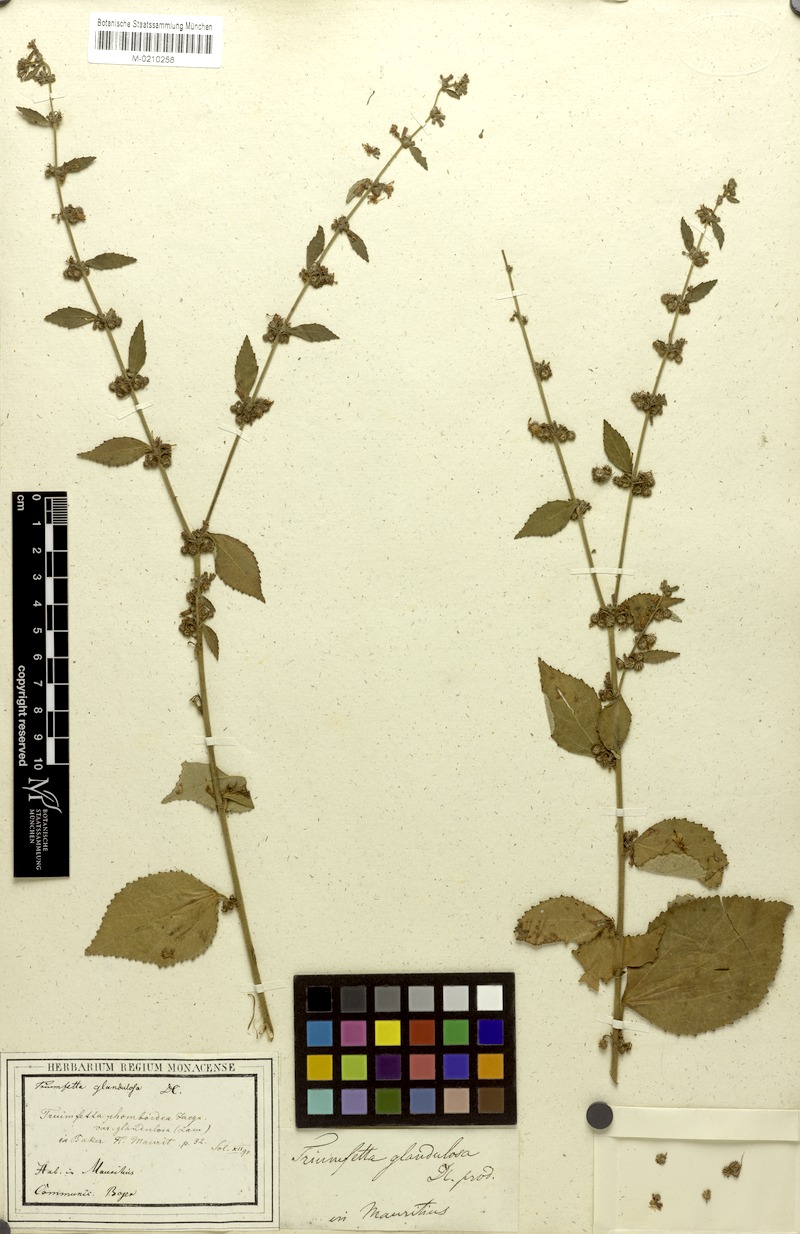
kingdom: Plantae
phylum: Tracheophyta
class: Magnoliopsida
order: Malvales
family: Malvaceae
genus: Triumfetta
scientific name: Triumfetta tomentosa
